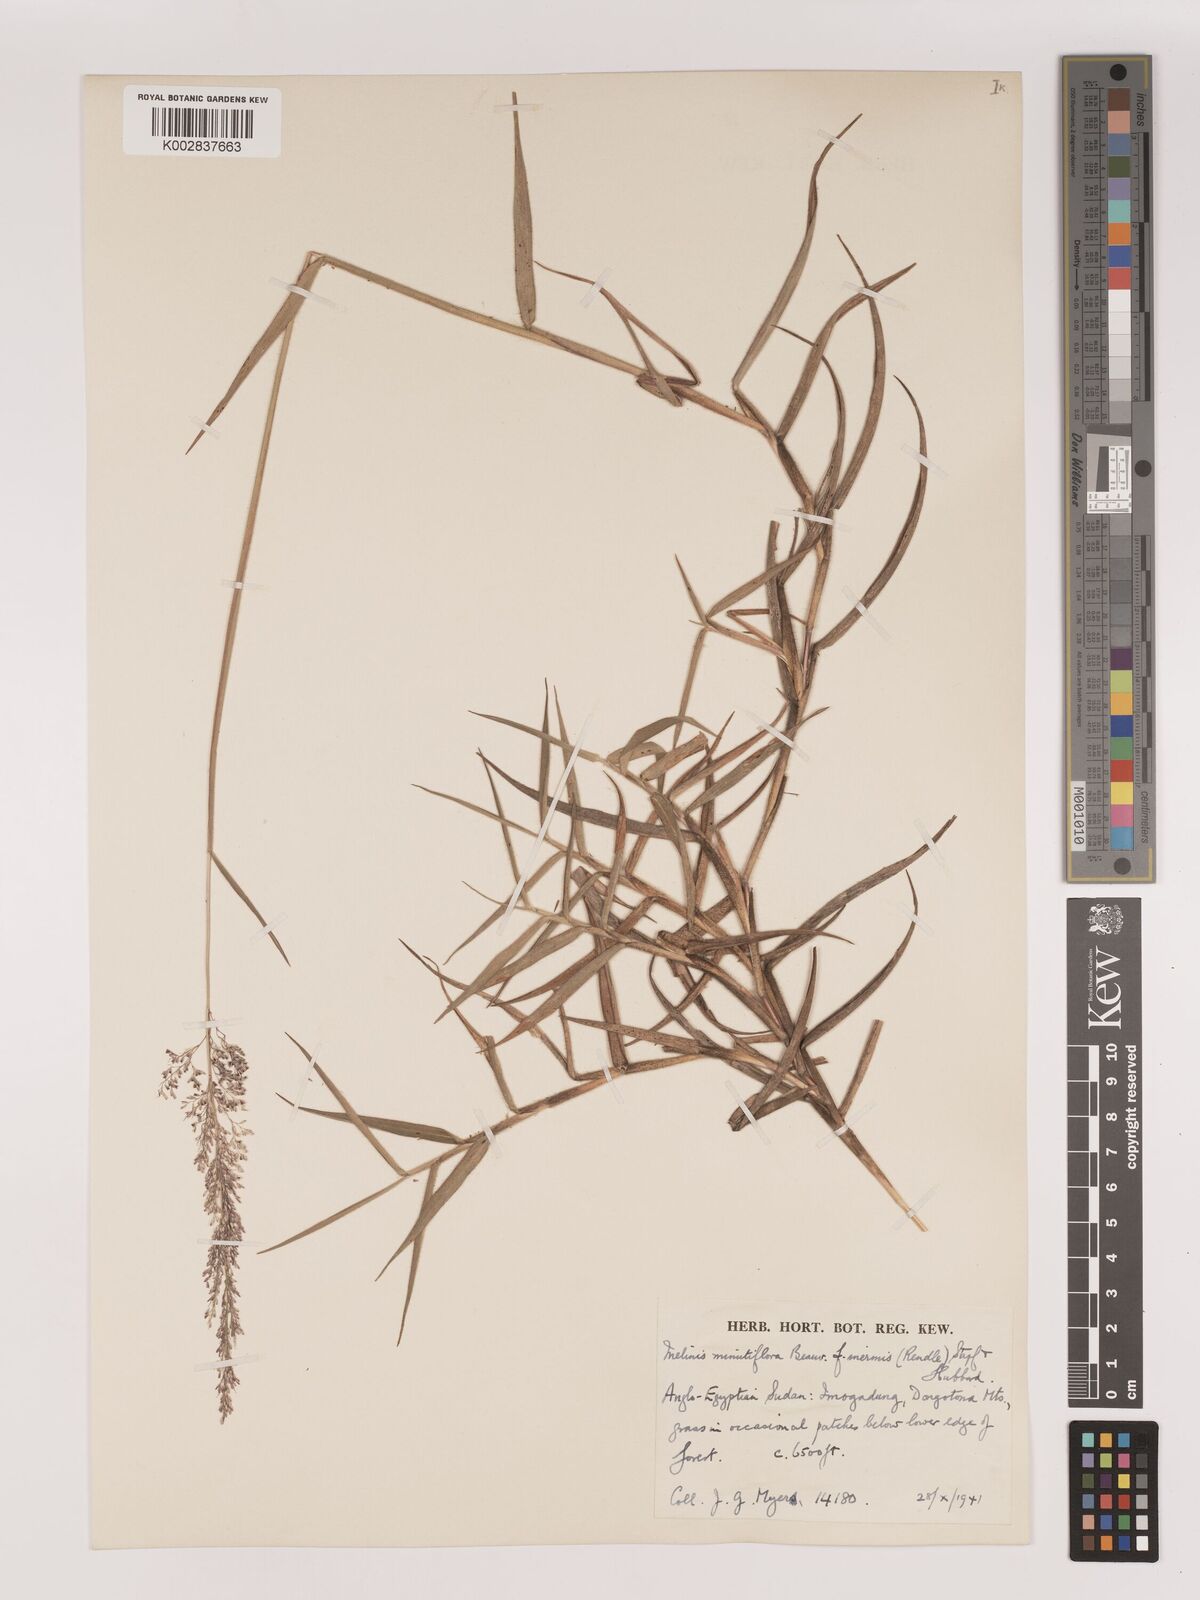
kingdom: Plantae
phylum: Tracheophyta
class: Liliopsida
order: Poales
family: Poaceae
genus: Melinis
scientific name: Melinis minutiflora
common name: Molassesgrass
